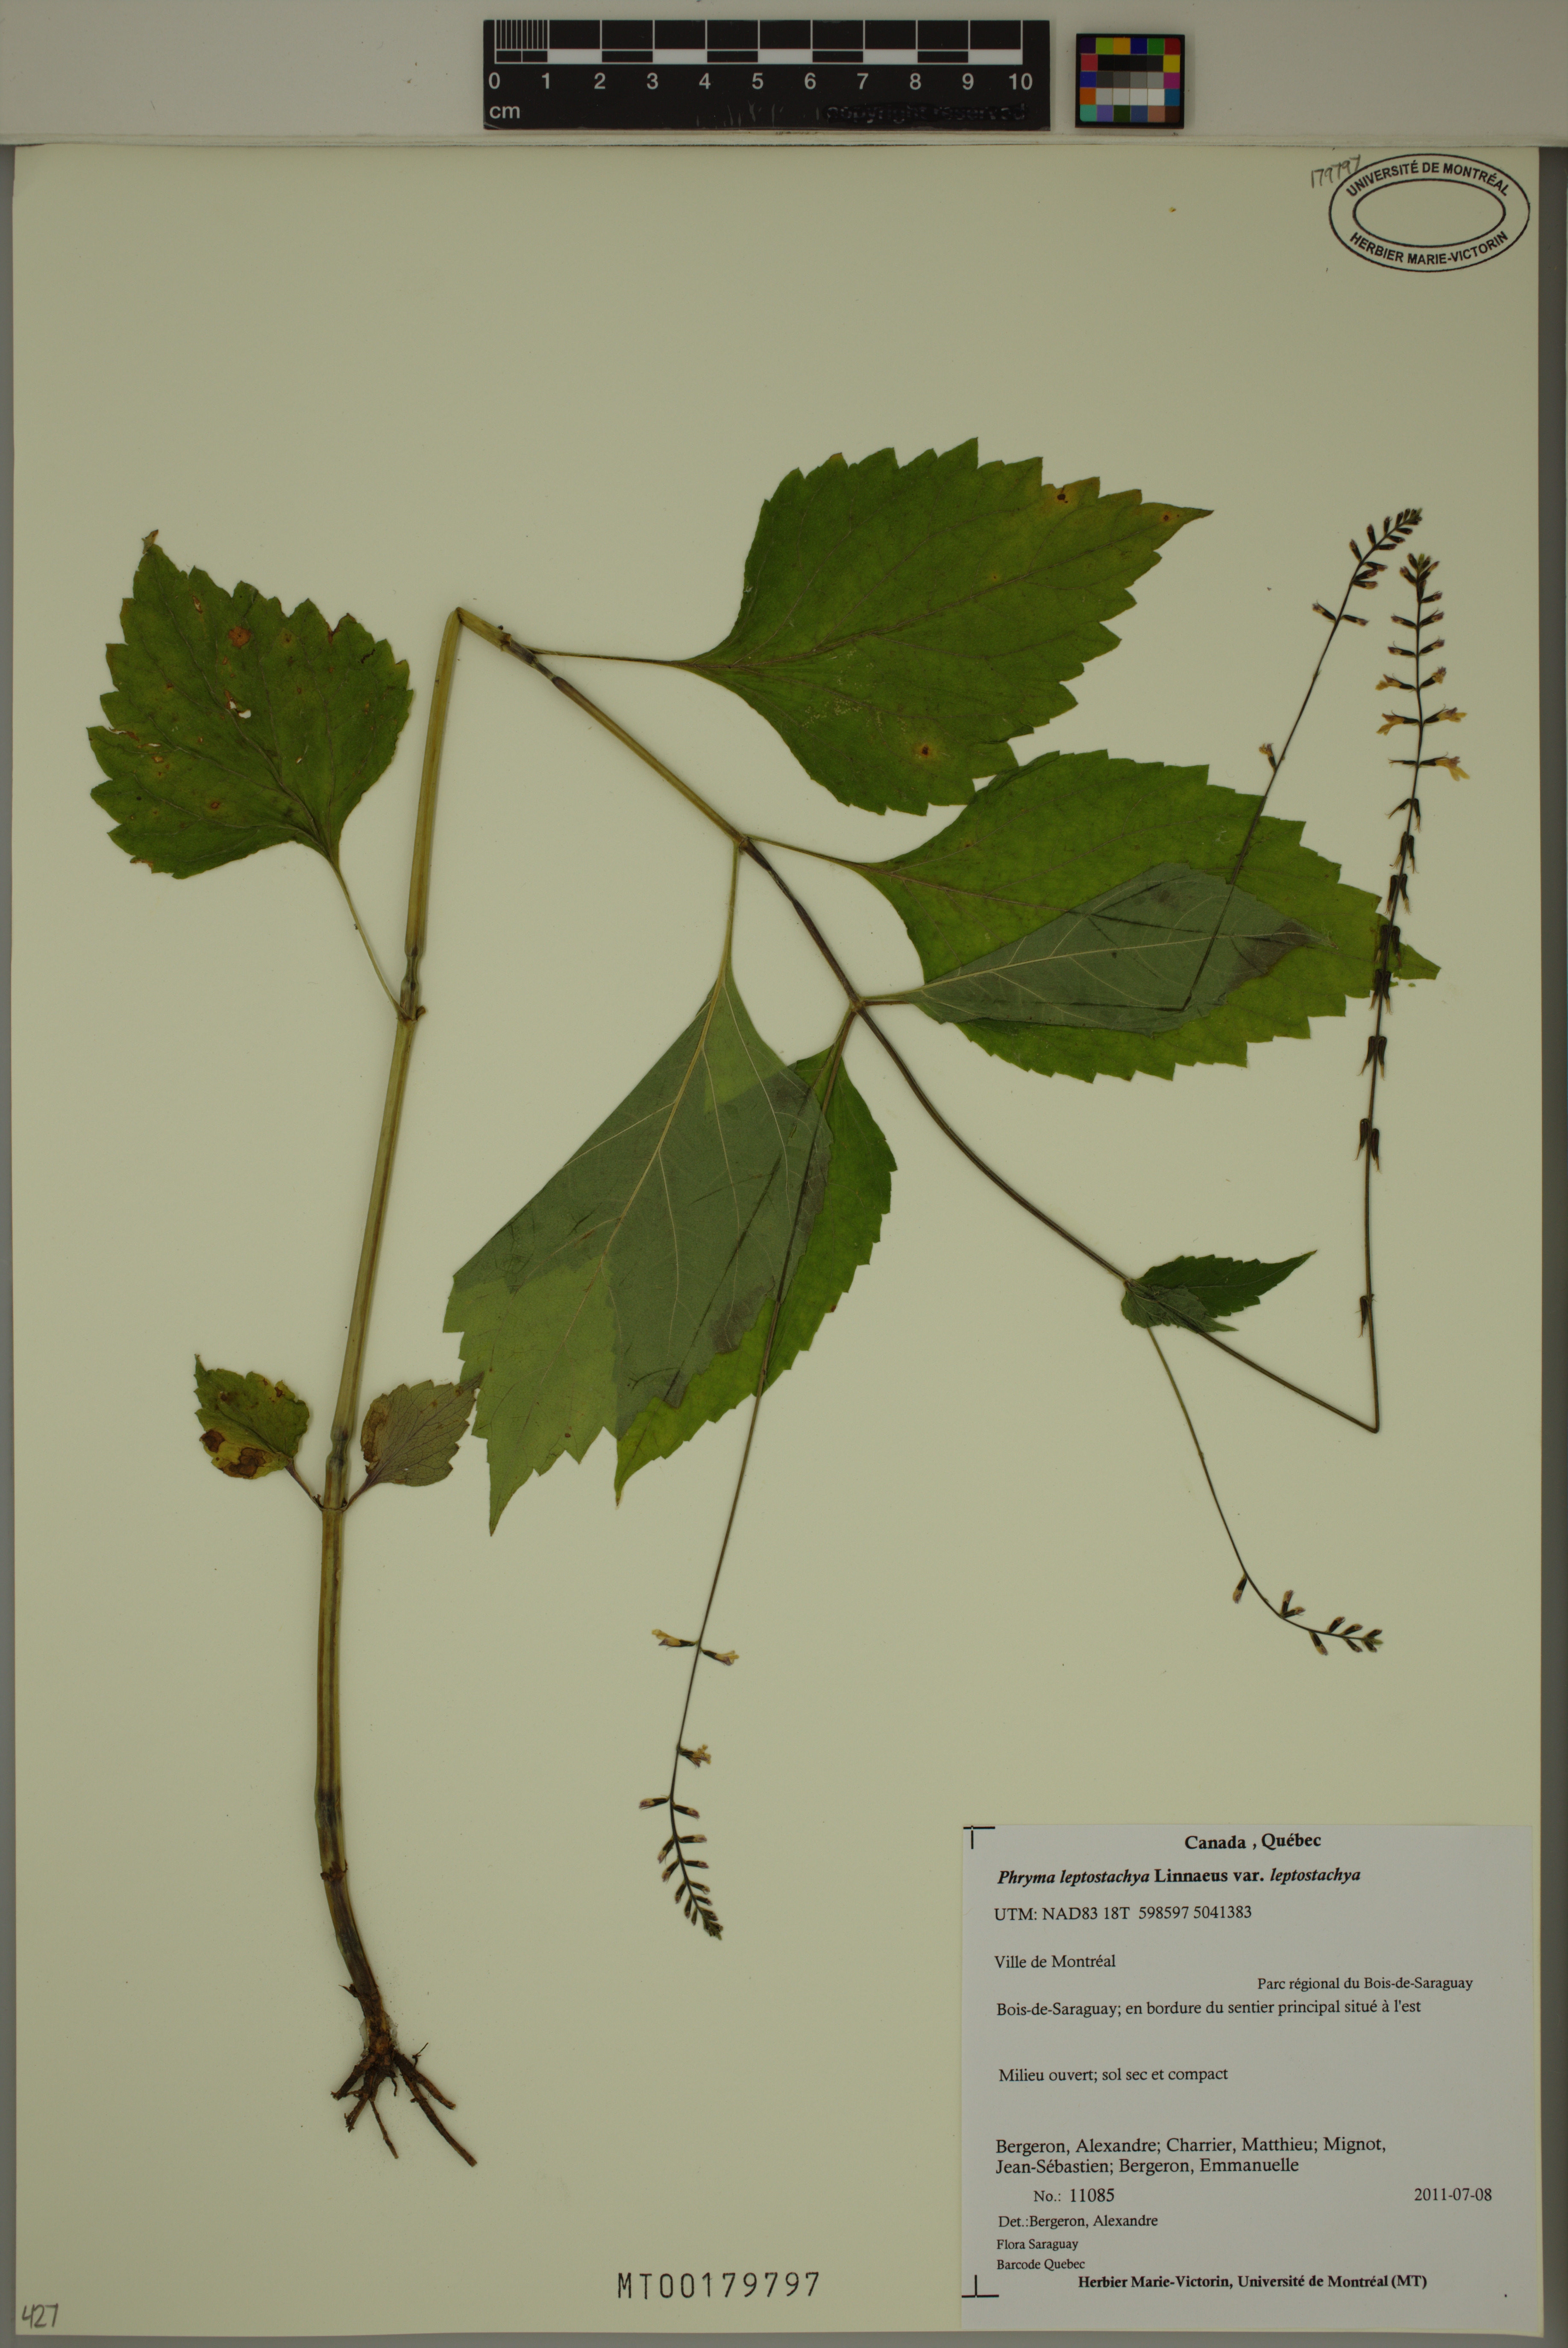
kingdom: Plantae
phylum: Tracheophyta
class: Magnoliopsida
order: Lamiales
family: Phrymaceae
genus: Phryma
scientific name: Phryma leptostachya
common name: American lopseed
